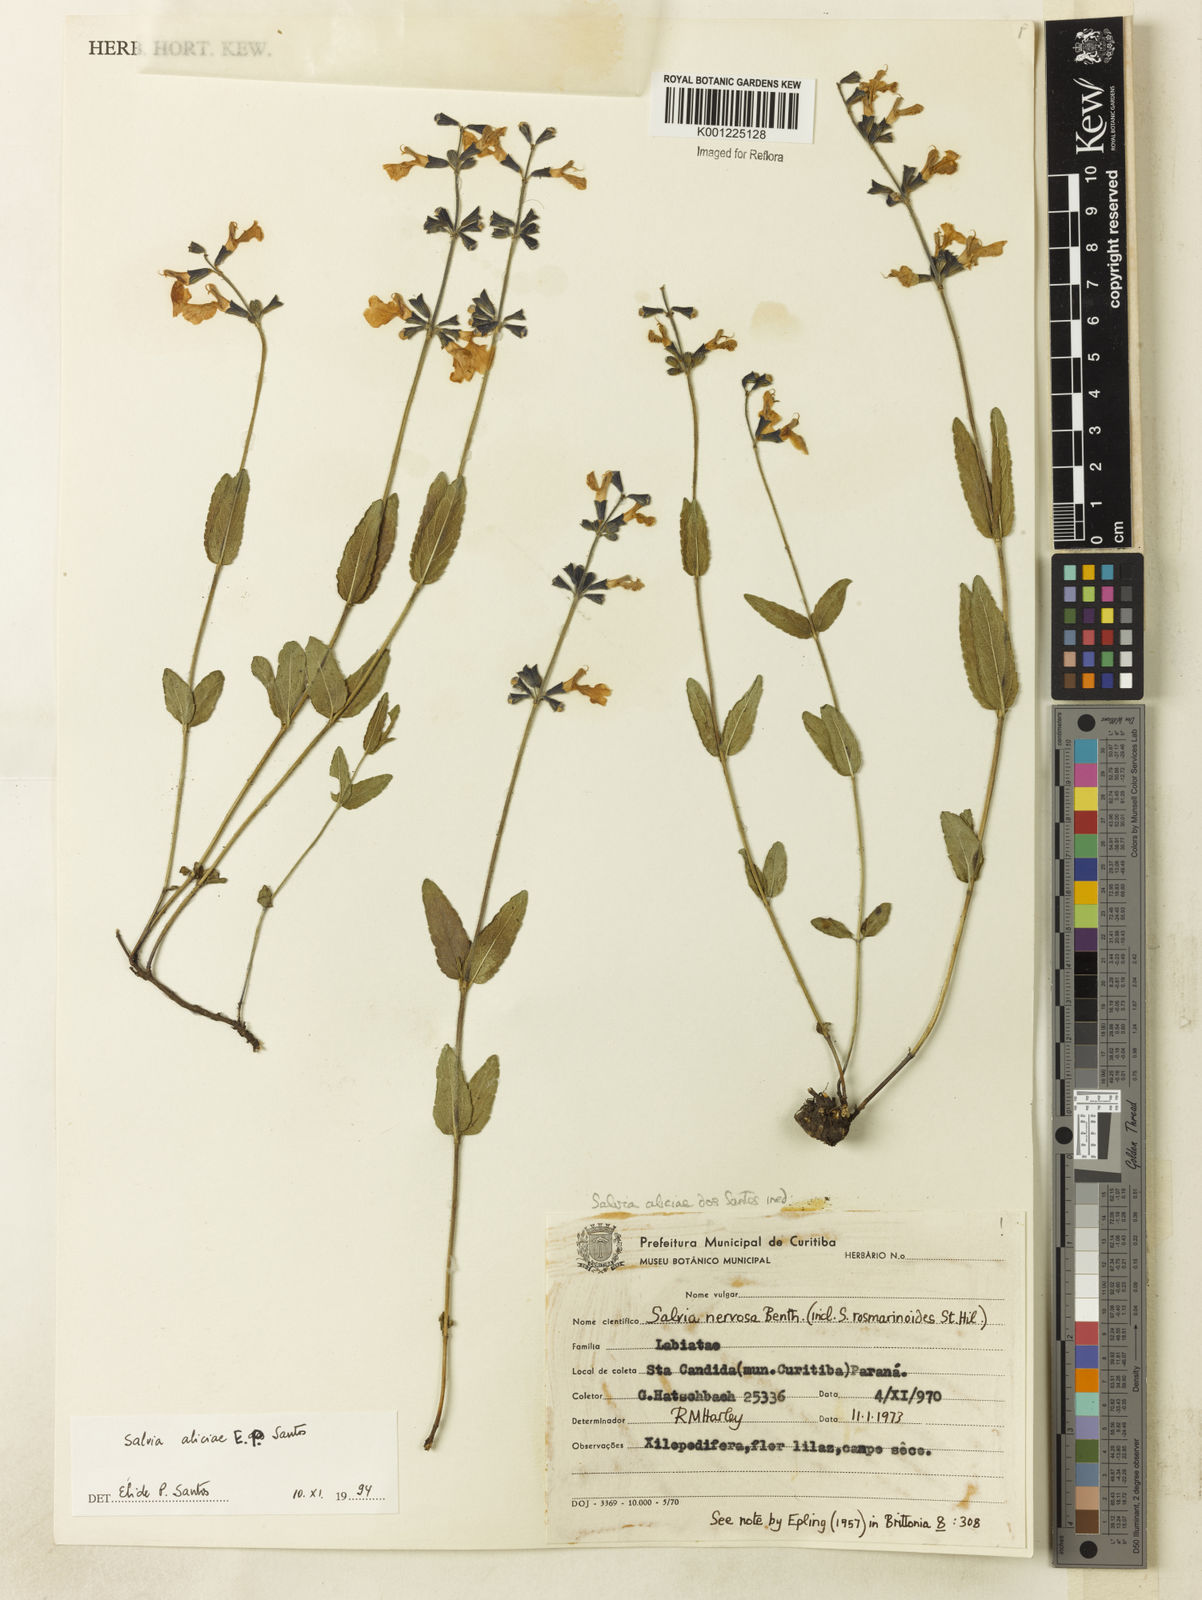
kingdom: Plantae
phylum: Tracheophyta
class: Magnoliopsida
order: Lamiales
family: Lamiaceae
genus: Salvia
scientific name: Salvia aliciae
